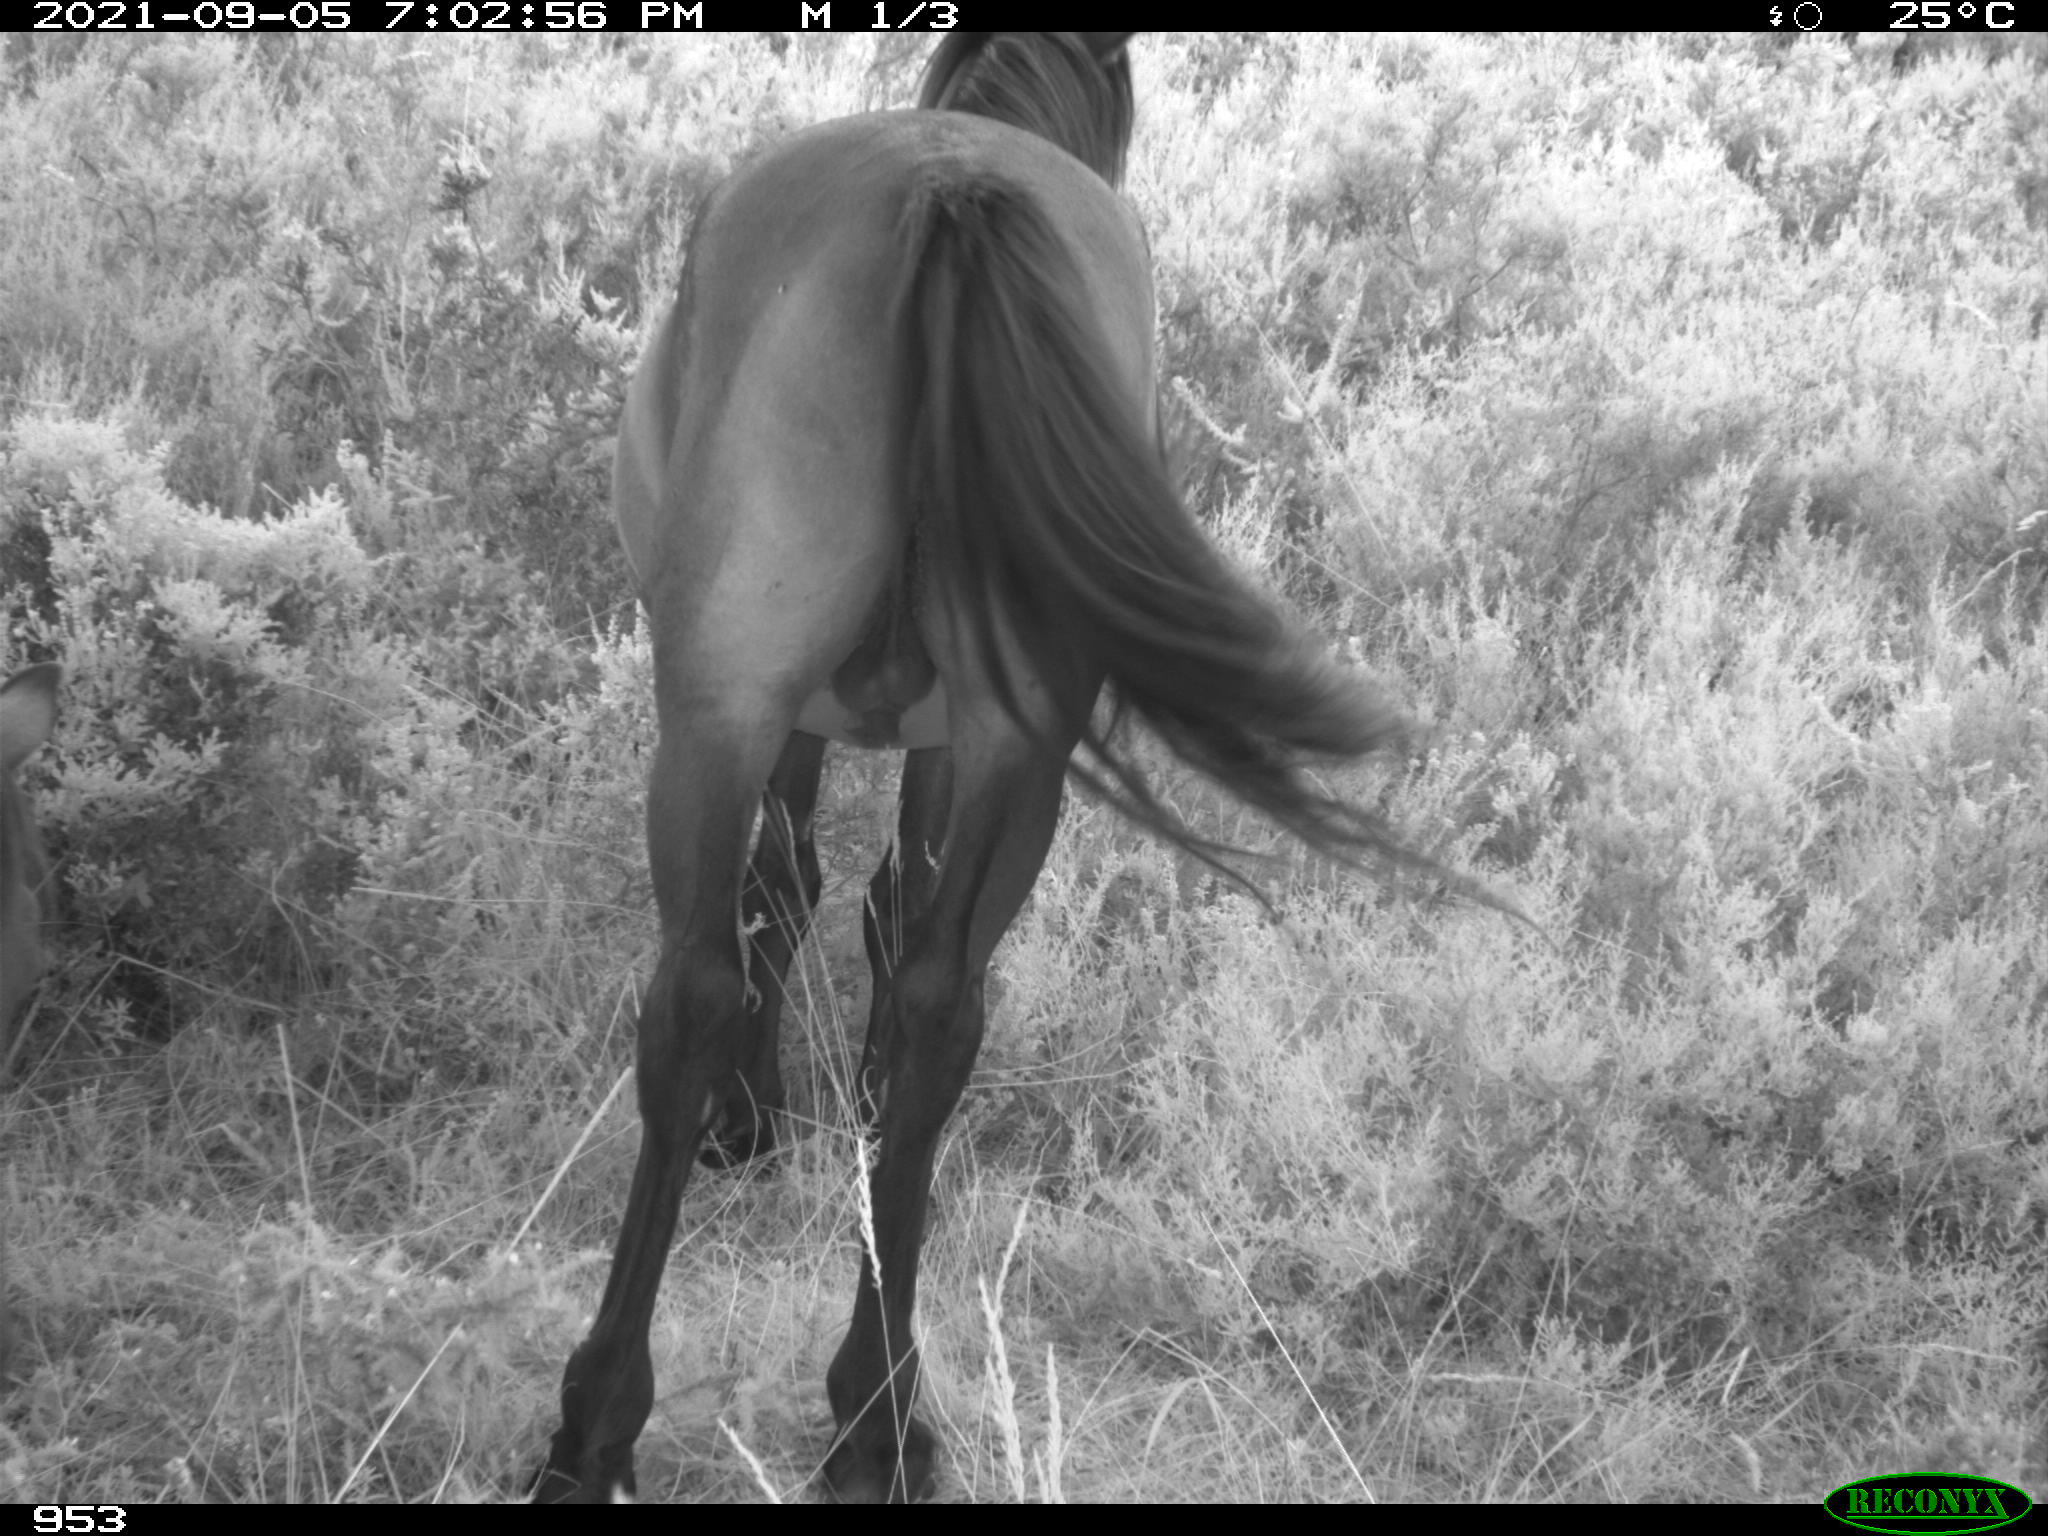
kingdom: Animalia
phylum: Chordata
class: Mammalia
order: Perissodactyla
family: Equidae
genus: Equus
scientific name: Equus caballus
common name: Horse
